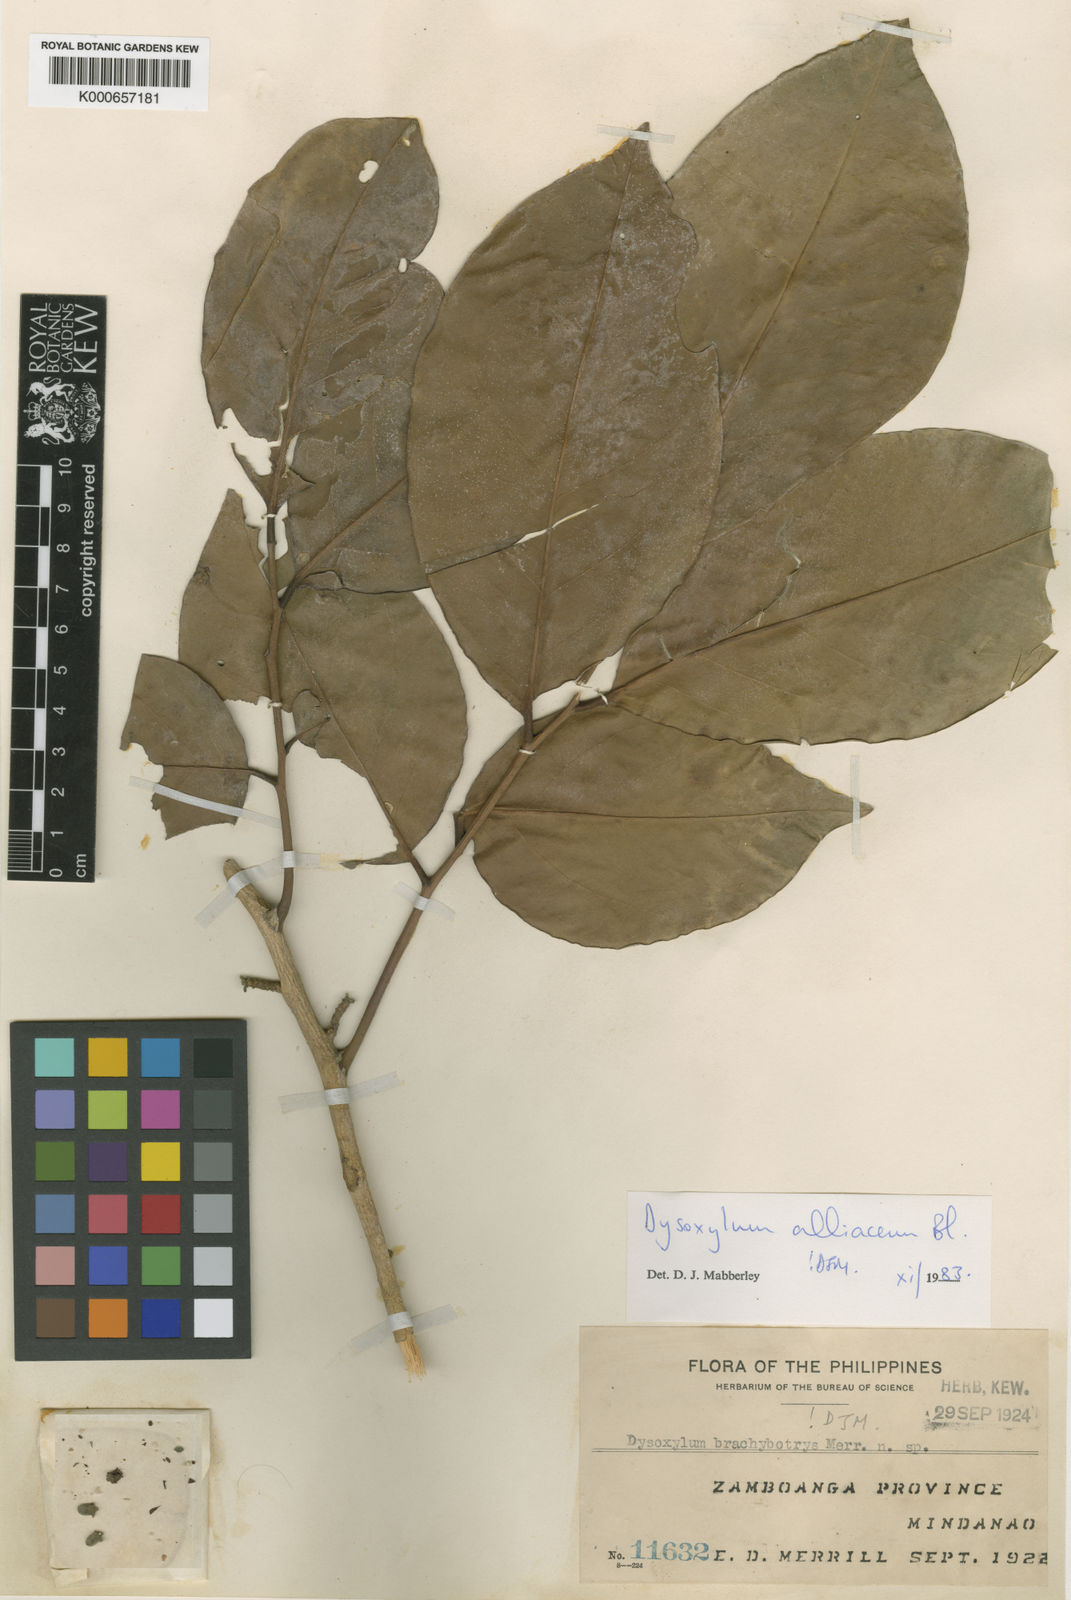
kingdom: Plantae
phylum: Tracheophyta
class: Magnoliopsida
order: Sapindales
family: Meliaceae
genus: Prasoxylon
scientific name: Prasoxylon alliaceum
